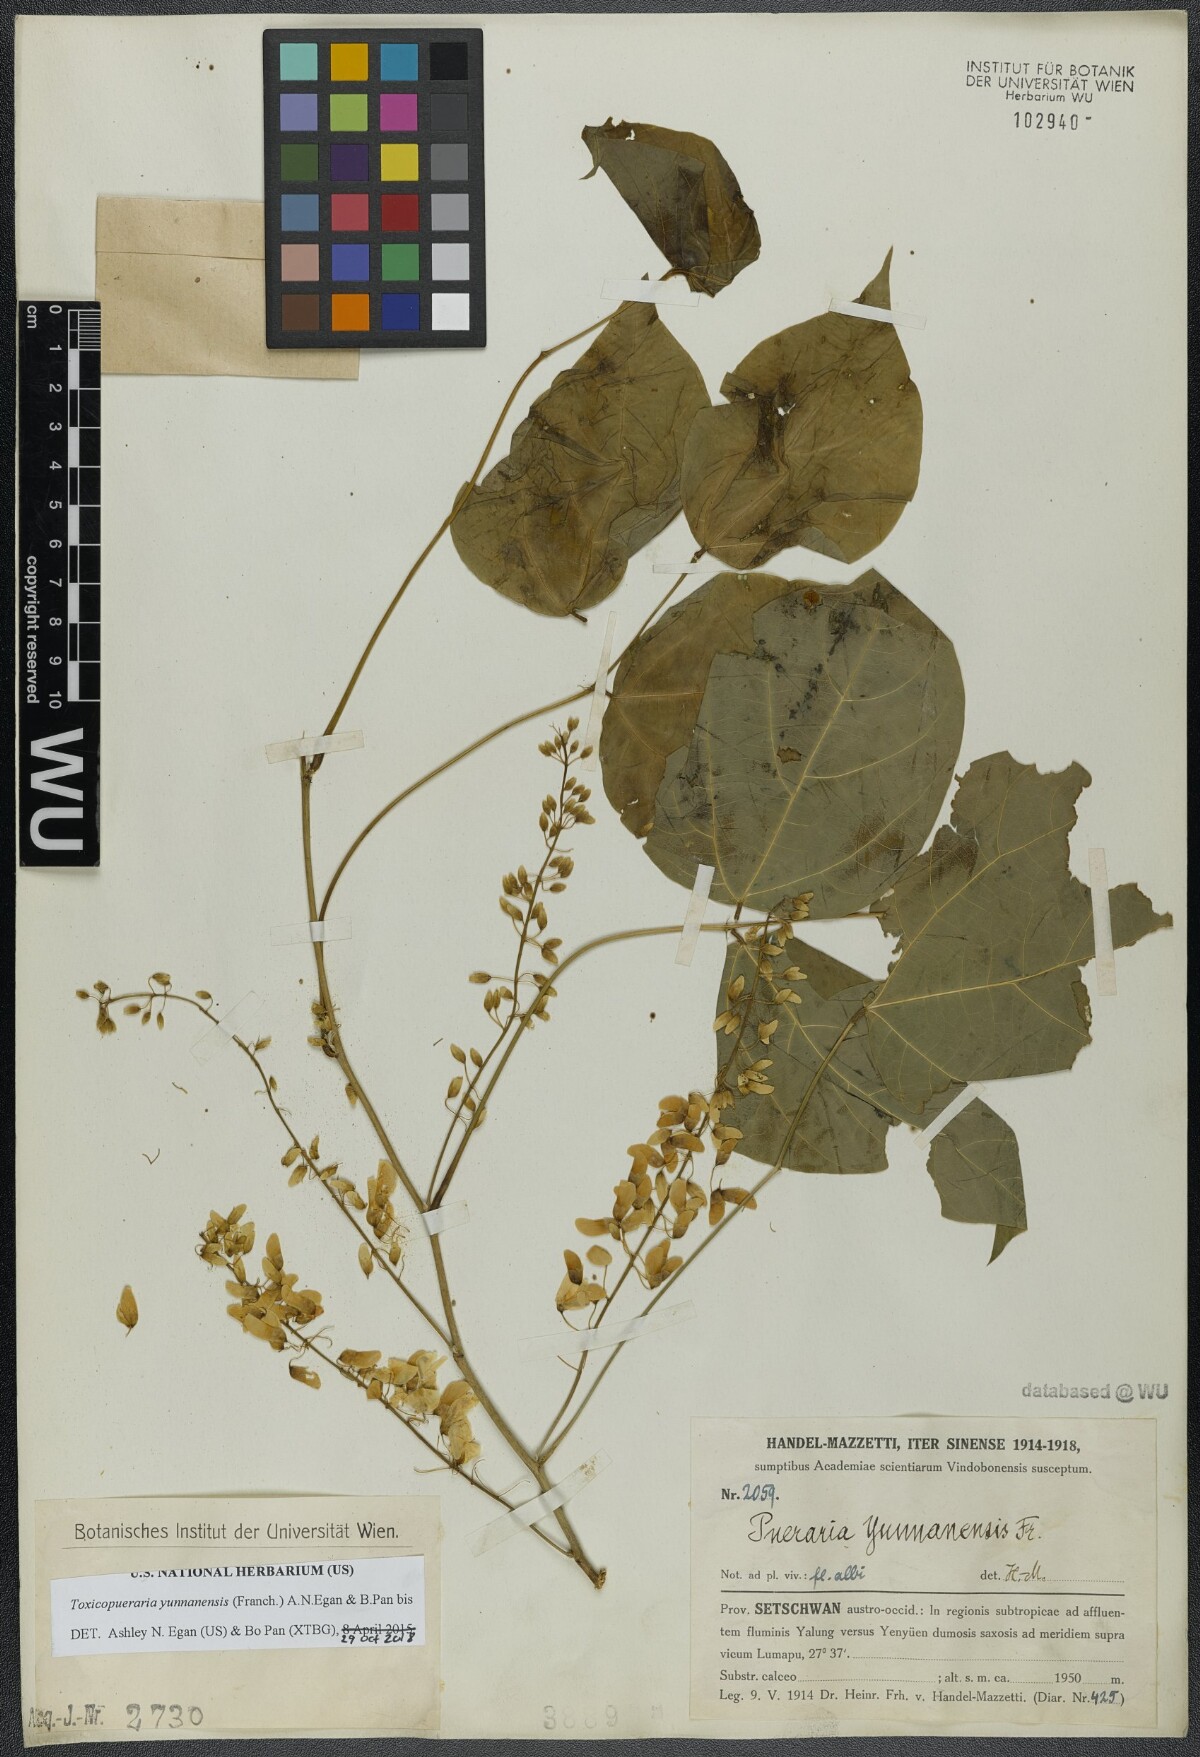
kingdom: Plantae
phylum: Tracheophyta
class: Magnoliopsida
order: Fabales
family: Fabaceae
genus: Toxicopueraria
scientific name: Toxicopueraria yunnanensis
